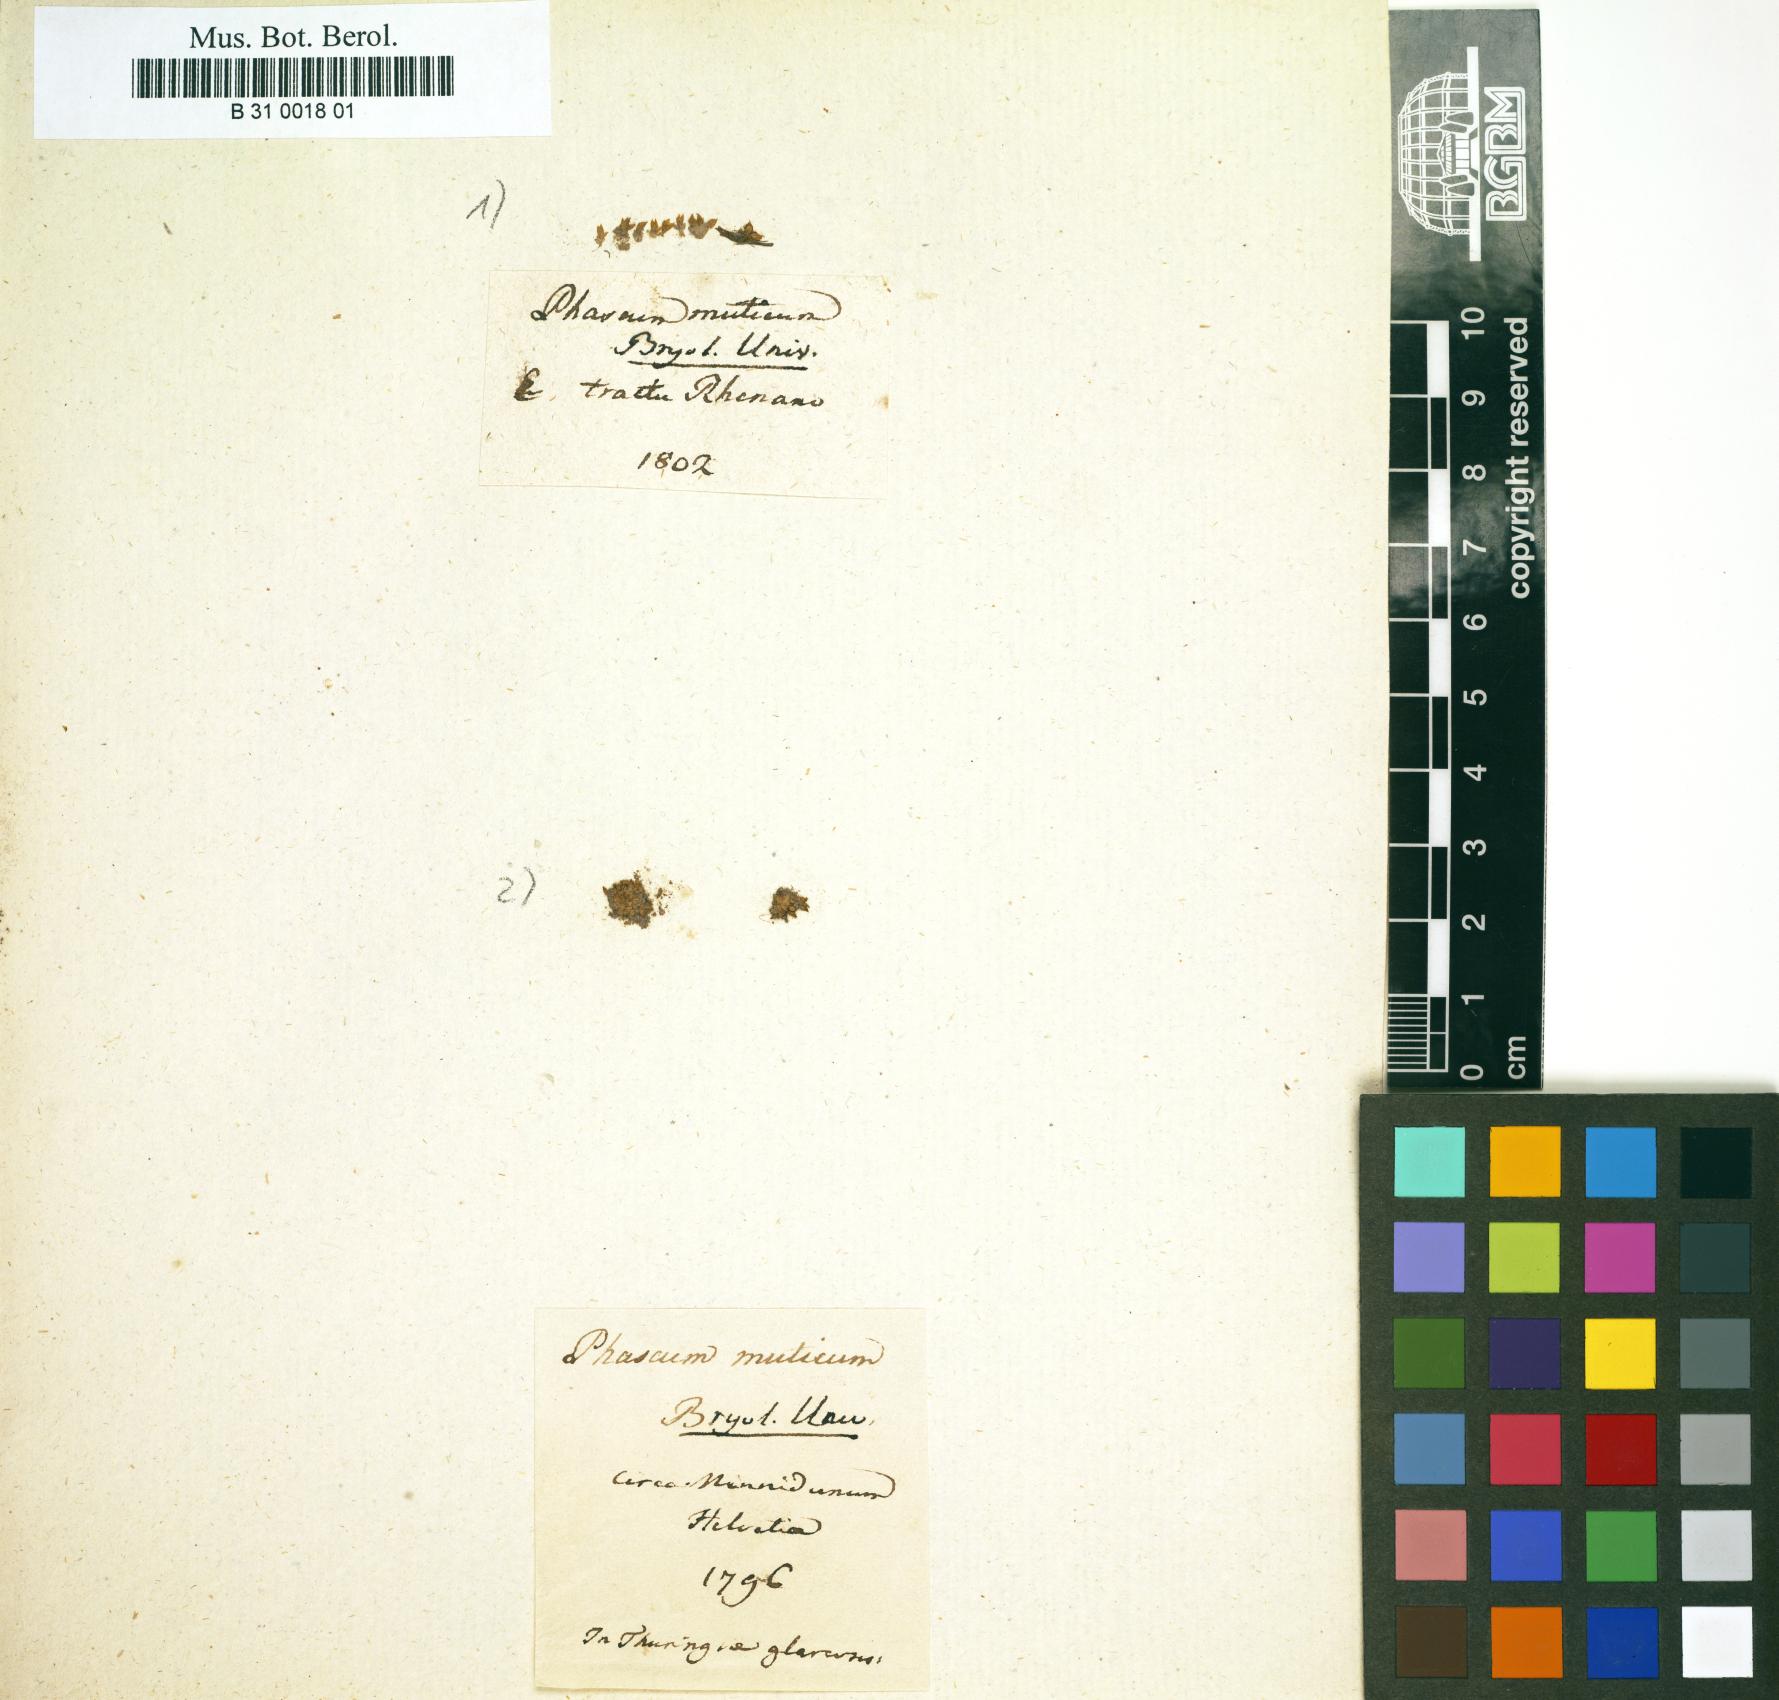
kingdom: Plantae
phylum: Bryophyta
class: Bryopsida
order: Pottiales
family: Pottiaceae
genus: Acaulon
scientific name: Acaulon muticum
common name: Rounded pygmy-moss
